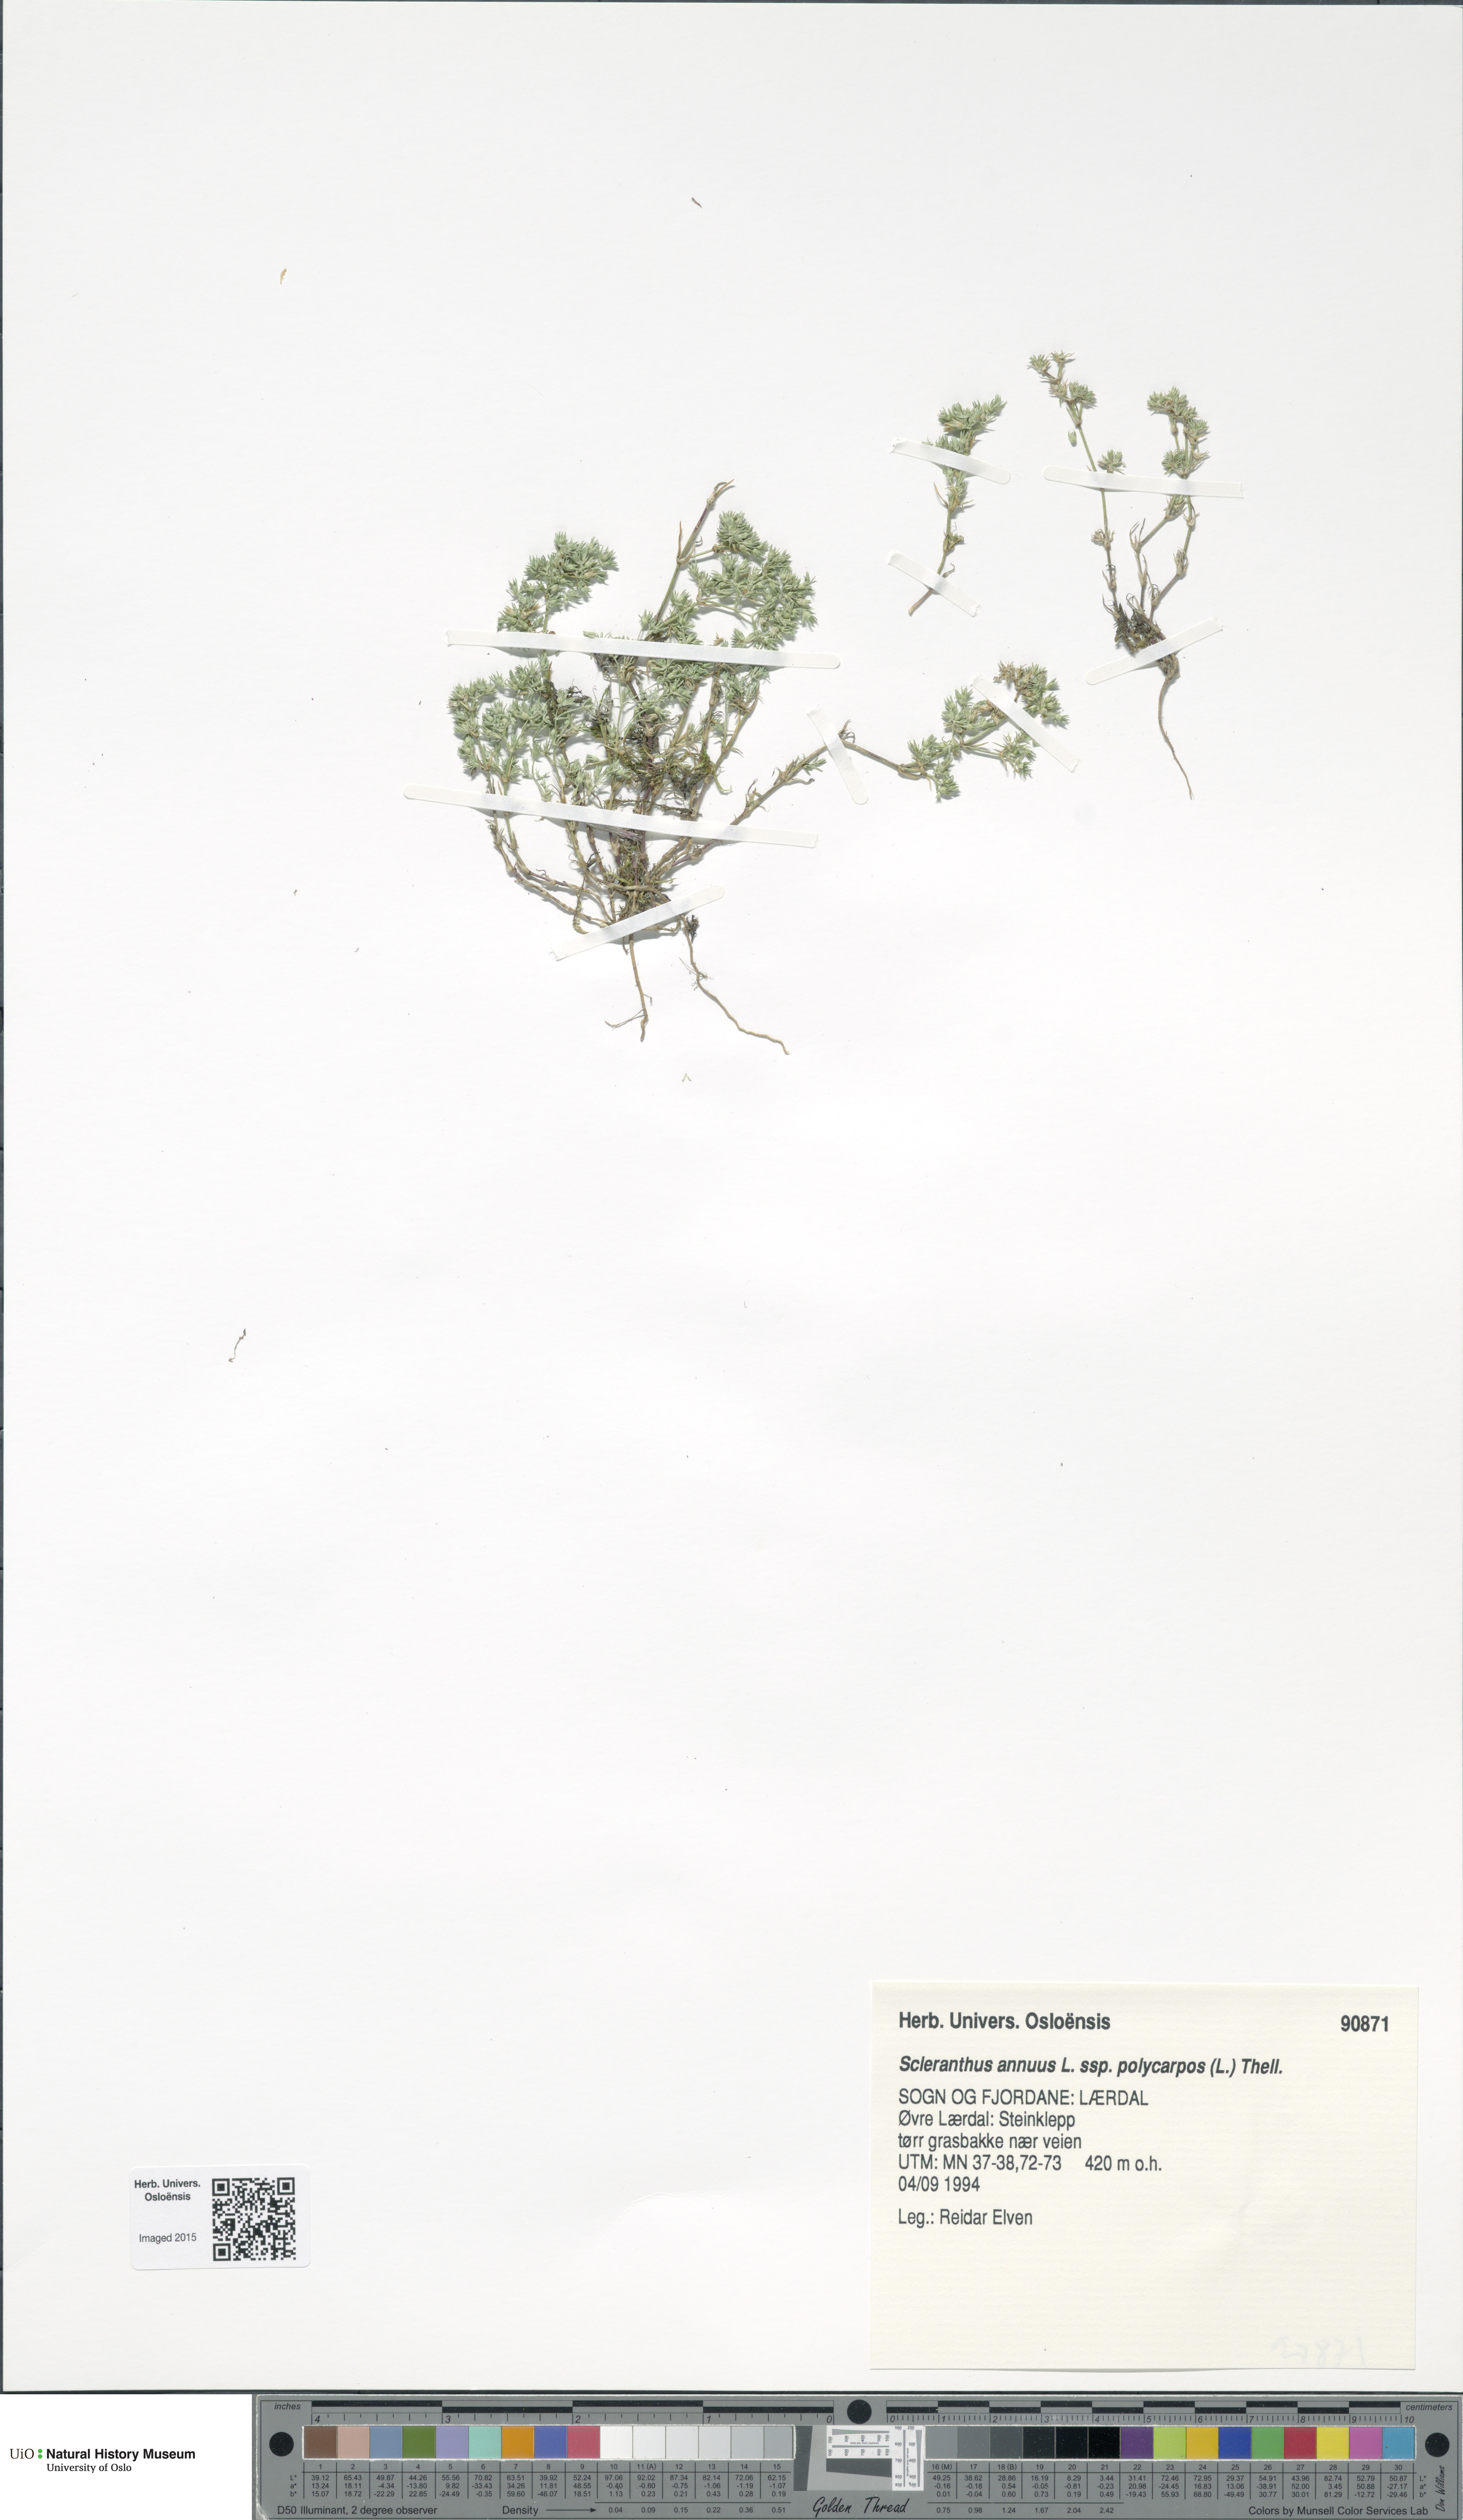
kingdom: Plantae
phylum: Tracheophyta
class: Magnoliopsida
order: Caryophyllales
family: Caryophyllaceae
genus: Scleranthus
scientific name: Scleranthus annuus
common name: Annual knawel
